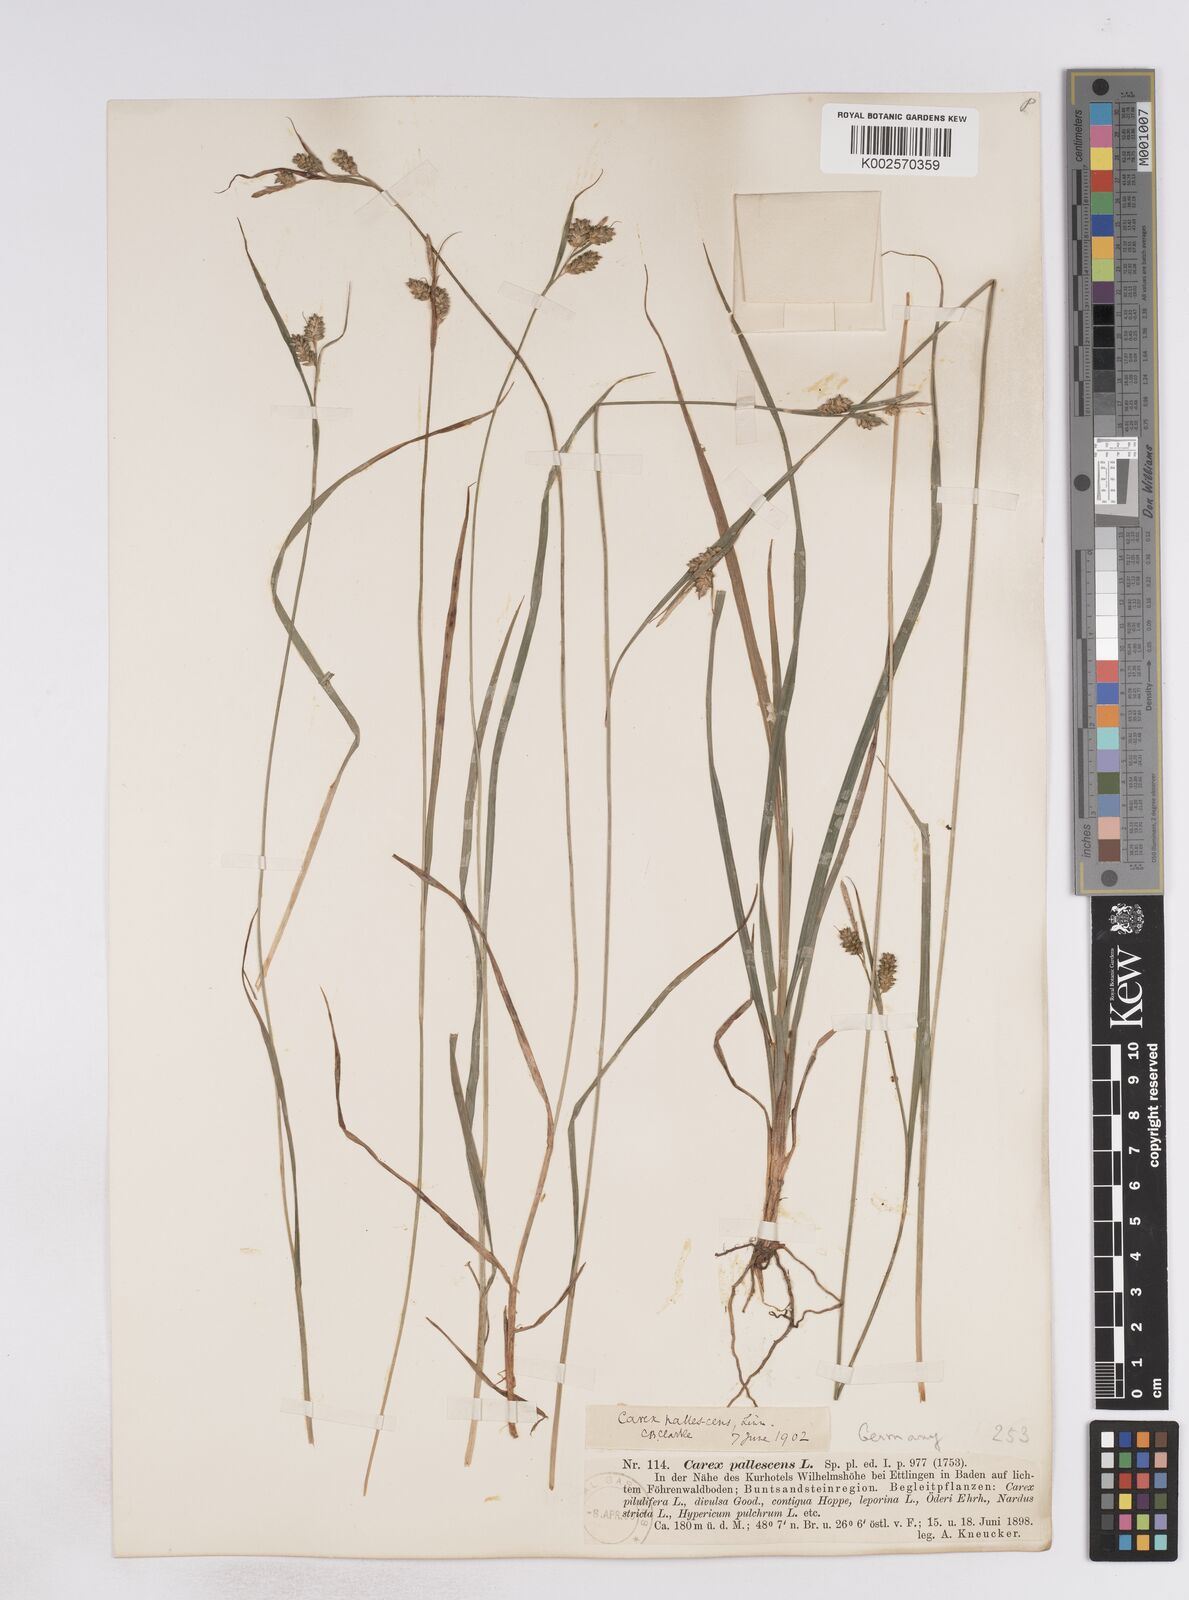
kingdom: Plantae
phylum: Tracheophyta
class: Liliopsida
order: Poales
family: Cyperaceae
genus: Carex
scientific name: Carex pallescens
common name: Pale sedge
